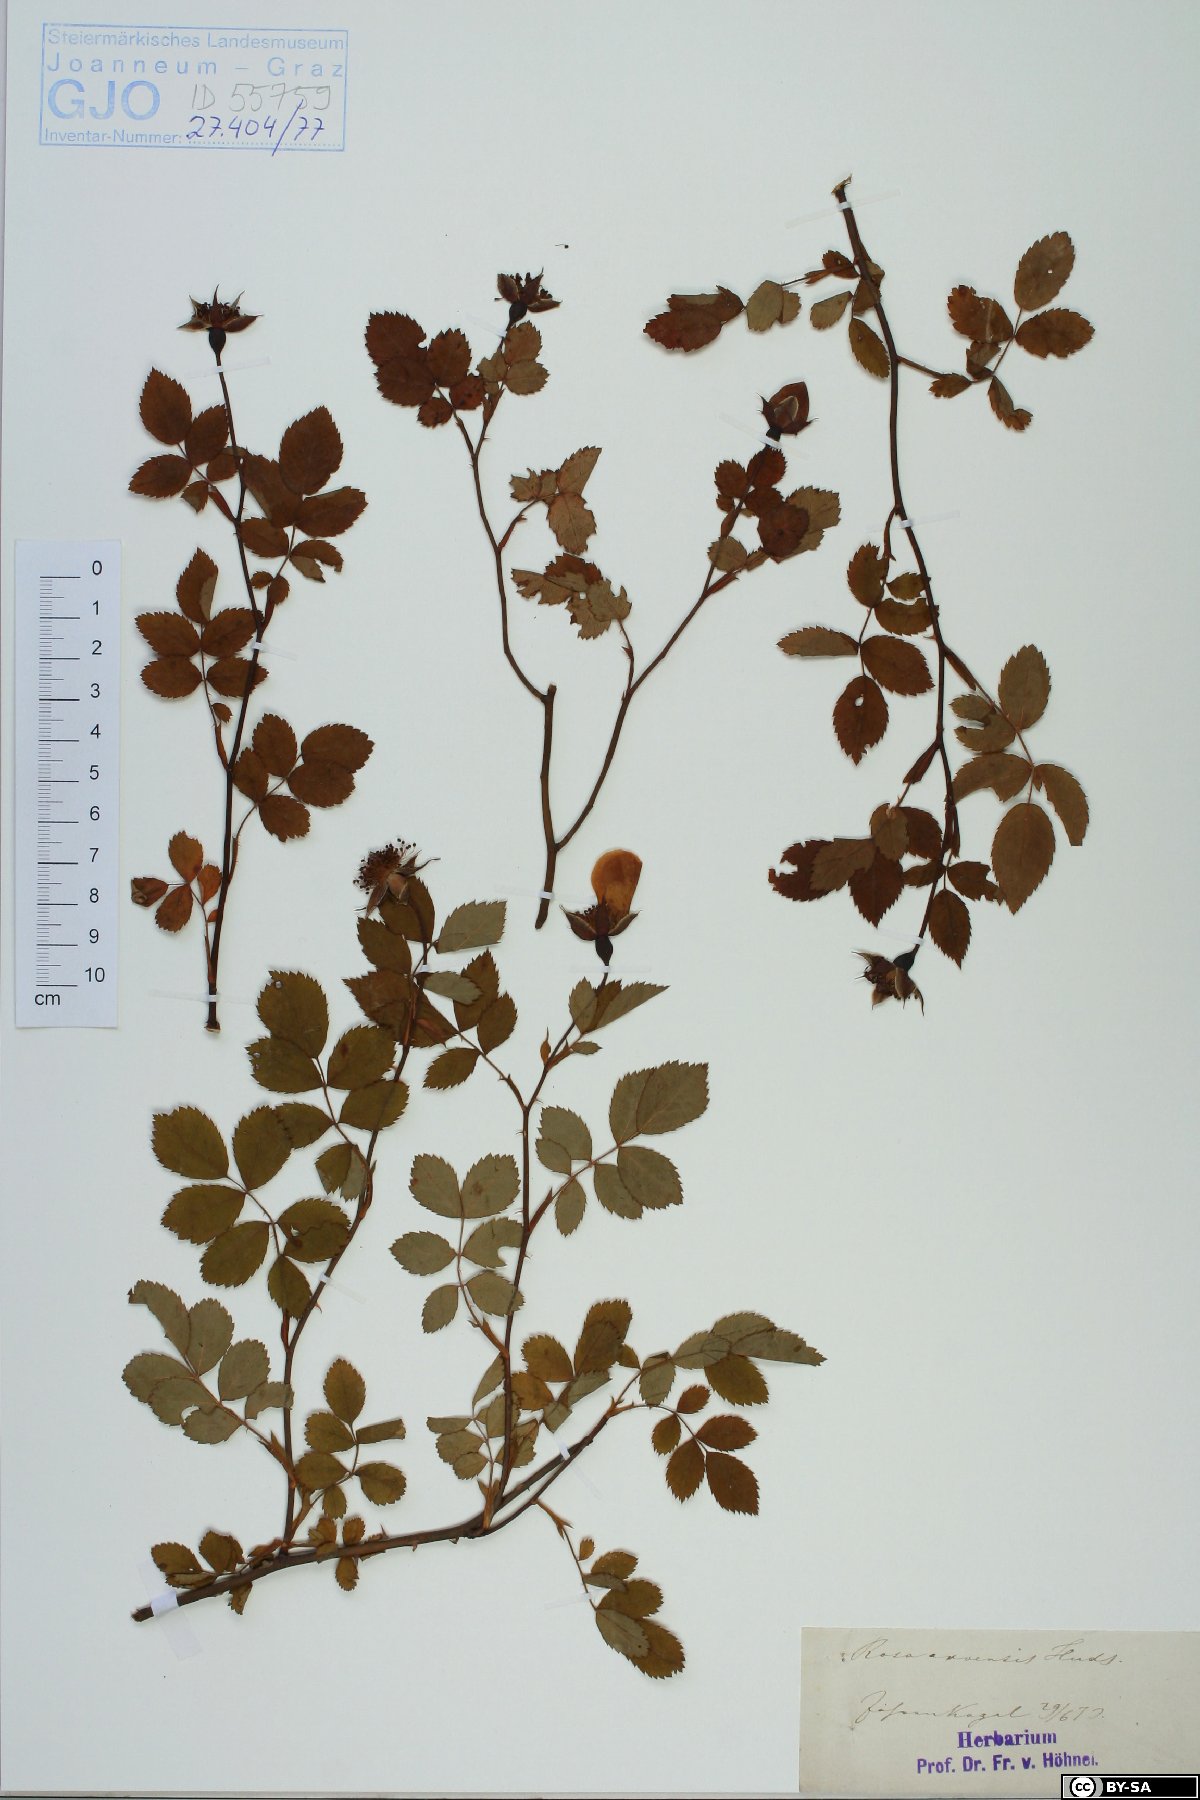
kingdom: Plantae
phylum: Tracheophyta
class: Magnoliopsida
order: Rosales
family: Rosaceae
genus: Rosa
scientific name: Rosa arvensis
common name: Field rose
